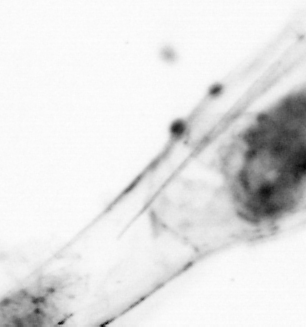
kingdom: Animalia
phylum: Chaetognatha
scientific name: Chaetognatha
